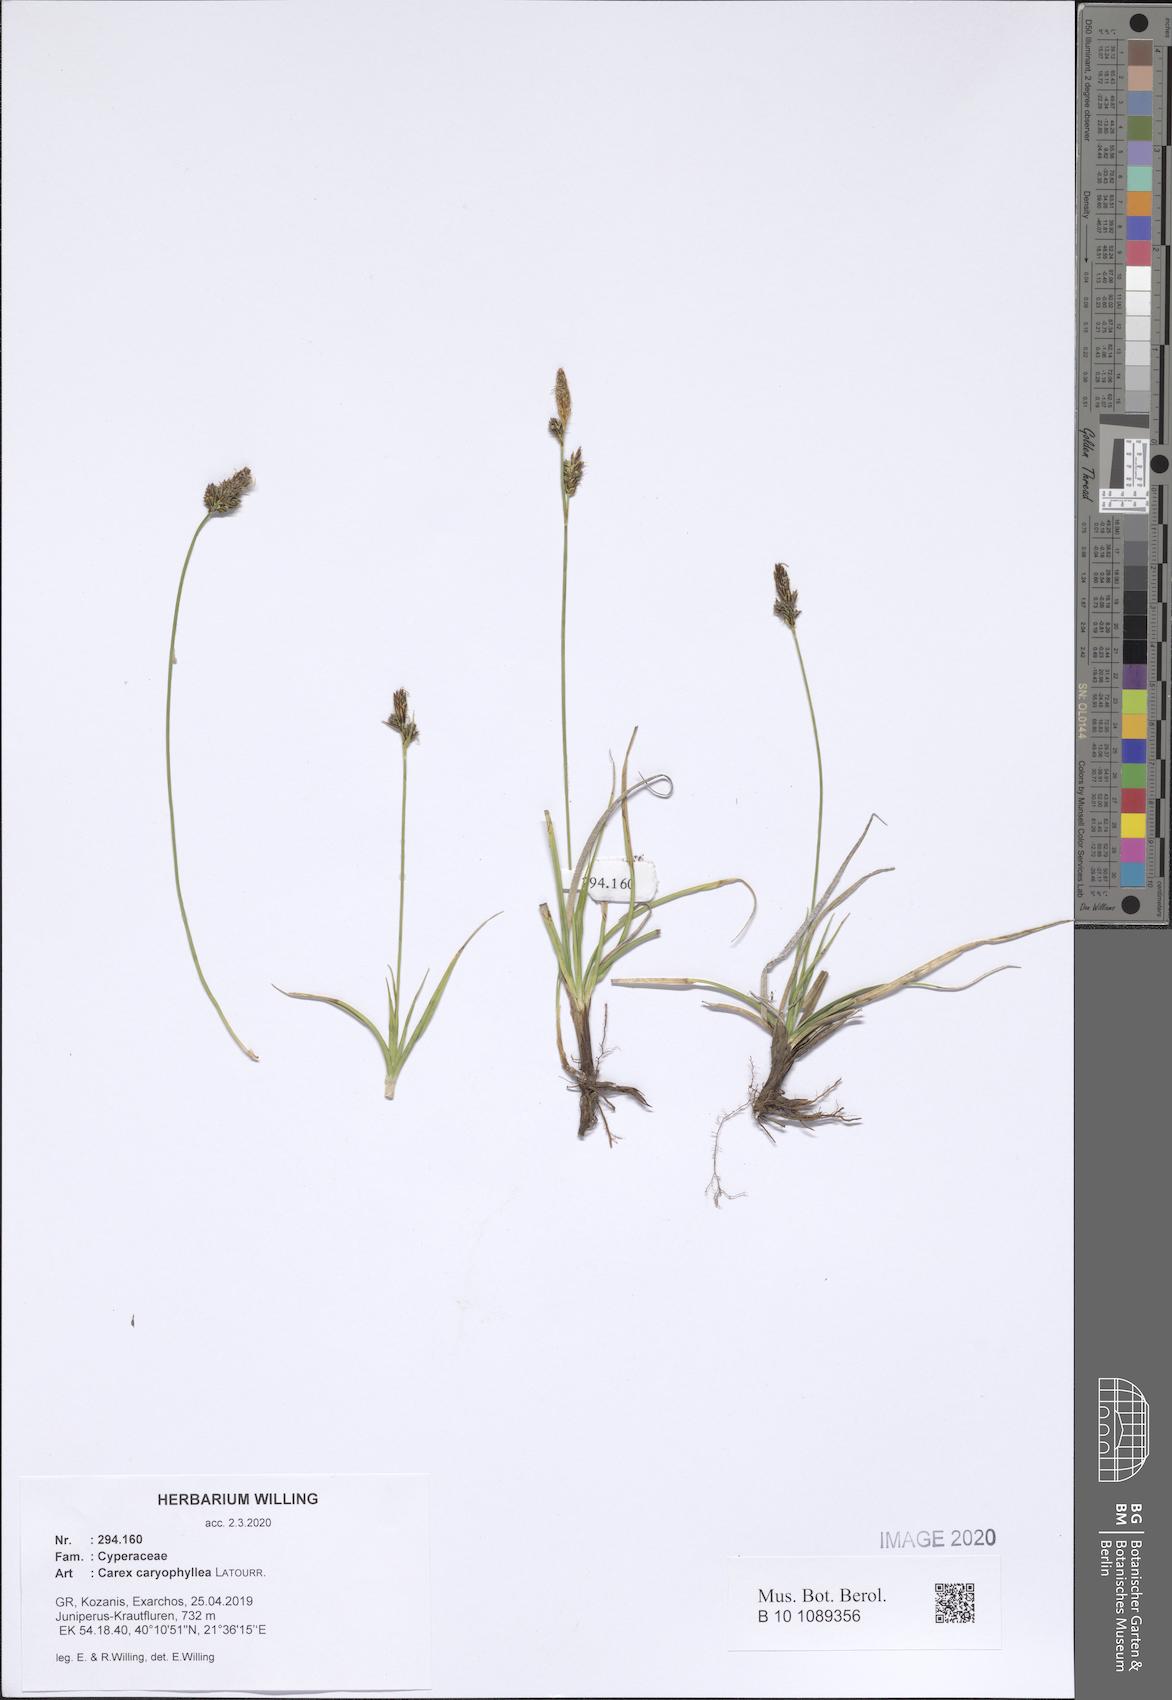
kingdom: Plantae
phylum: Tracheophyta
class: Liliopsida
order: Poales
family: Cyperaceae
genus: Carex
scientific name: Carex caryophyllea
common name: Spring sedge
